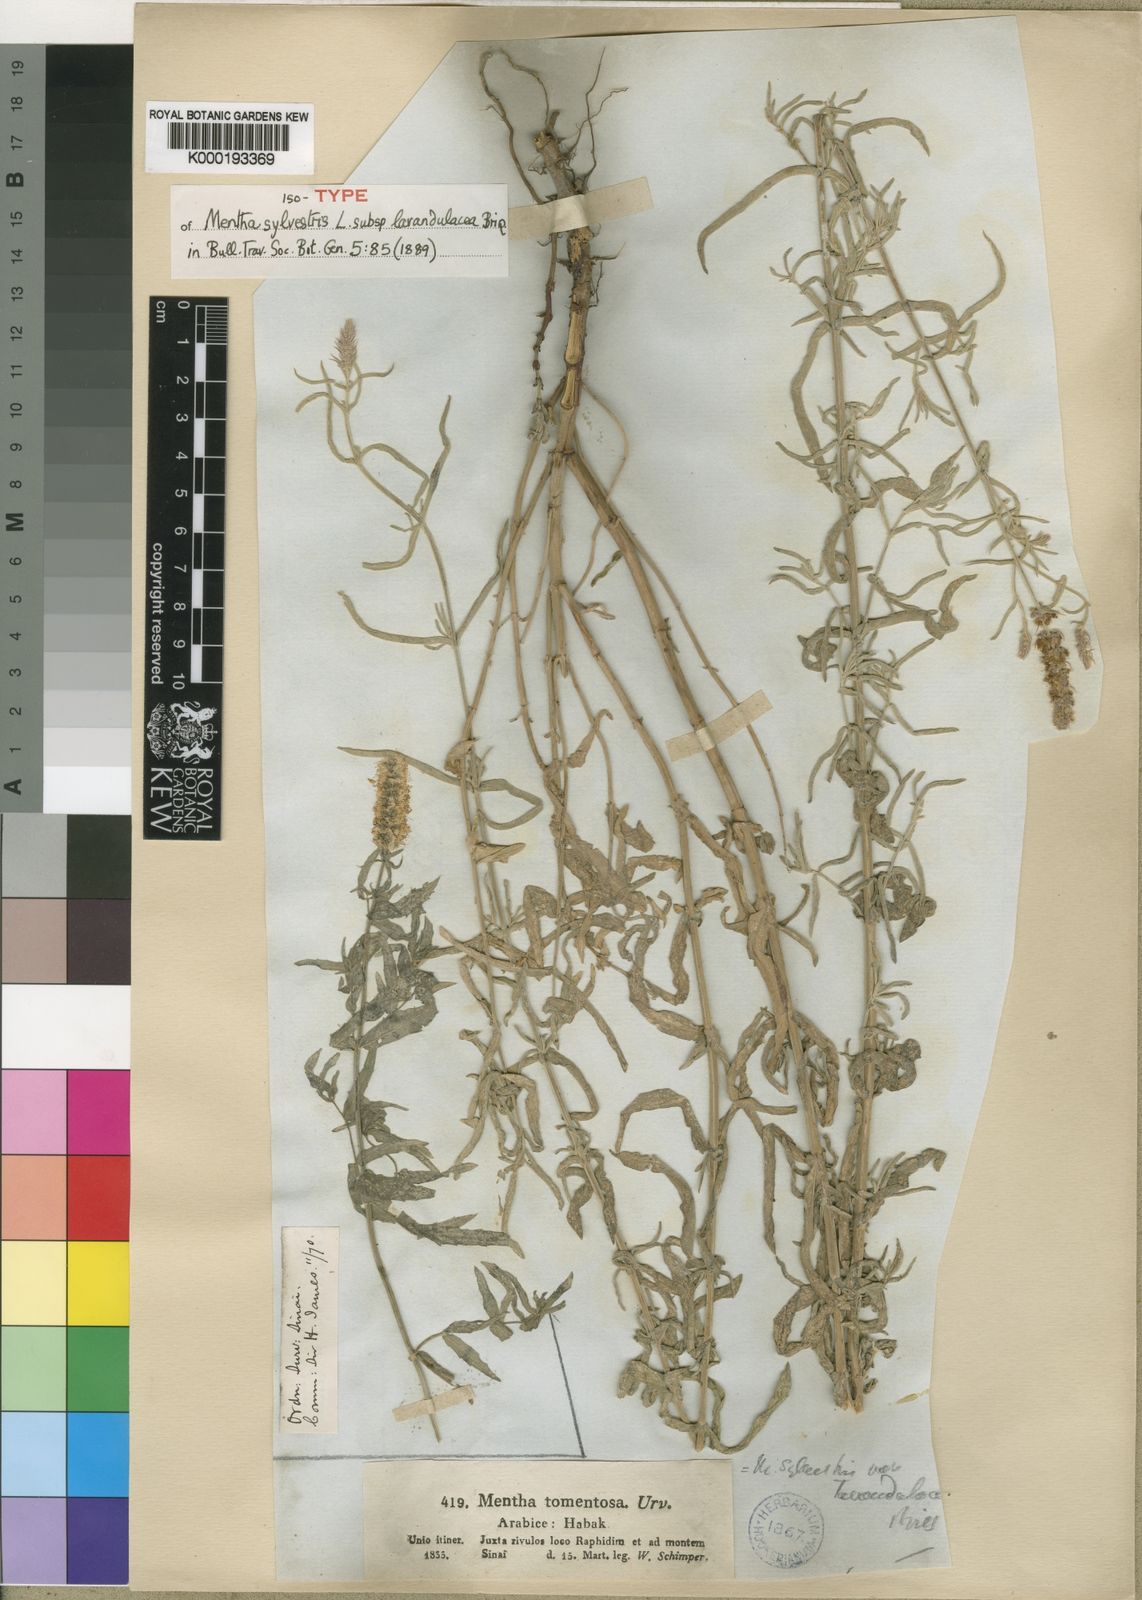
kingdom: Plantae
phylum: Tracheophyta
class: Magnoliopsida
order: Lamiales
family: Lamiaceae
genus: Mentha
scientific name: Mentha longifolia
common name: Horse mint
